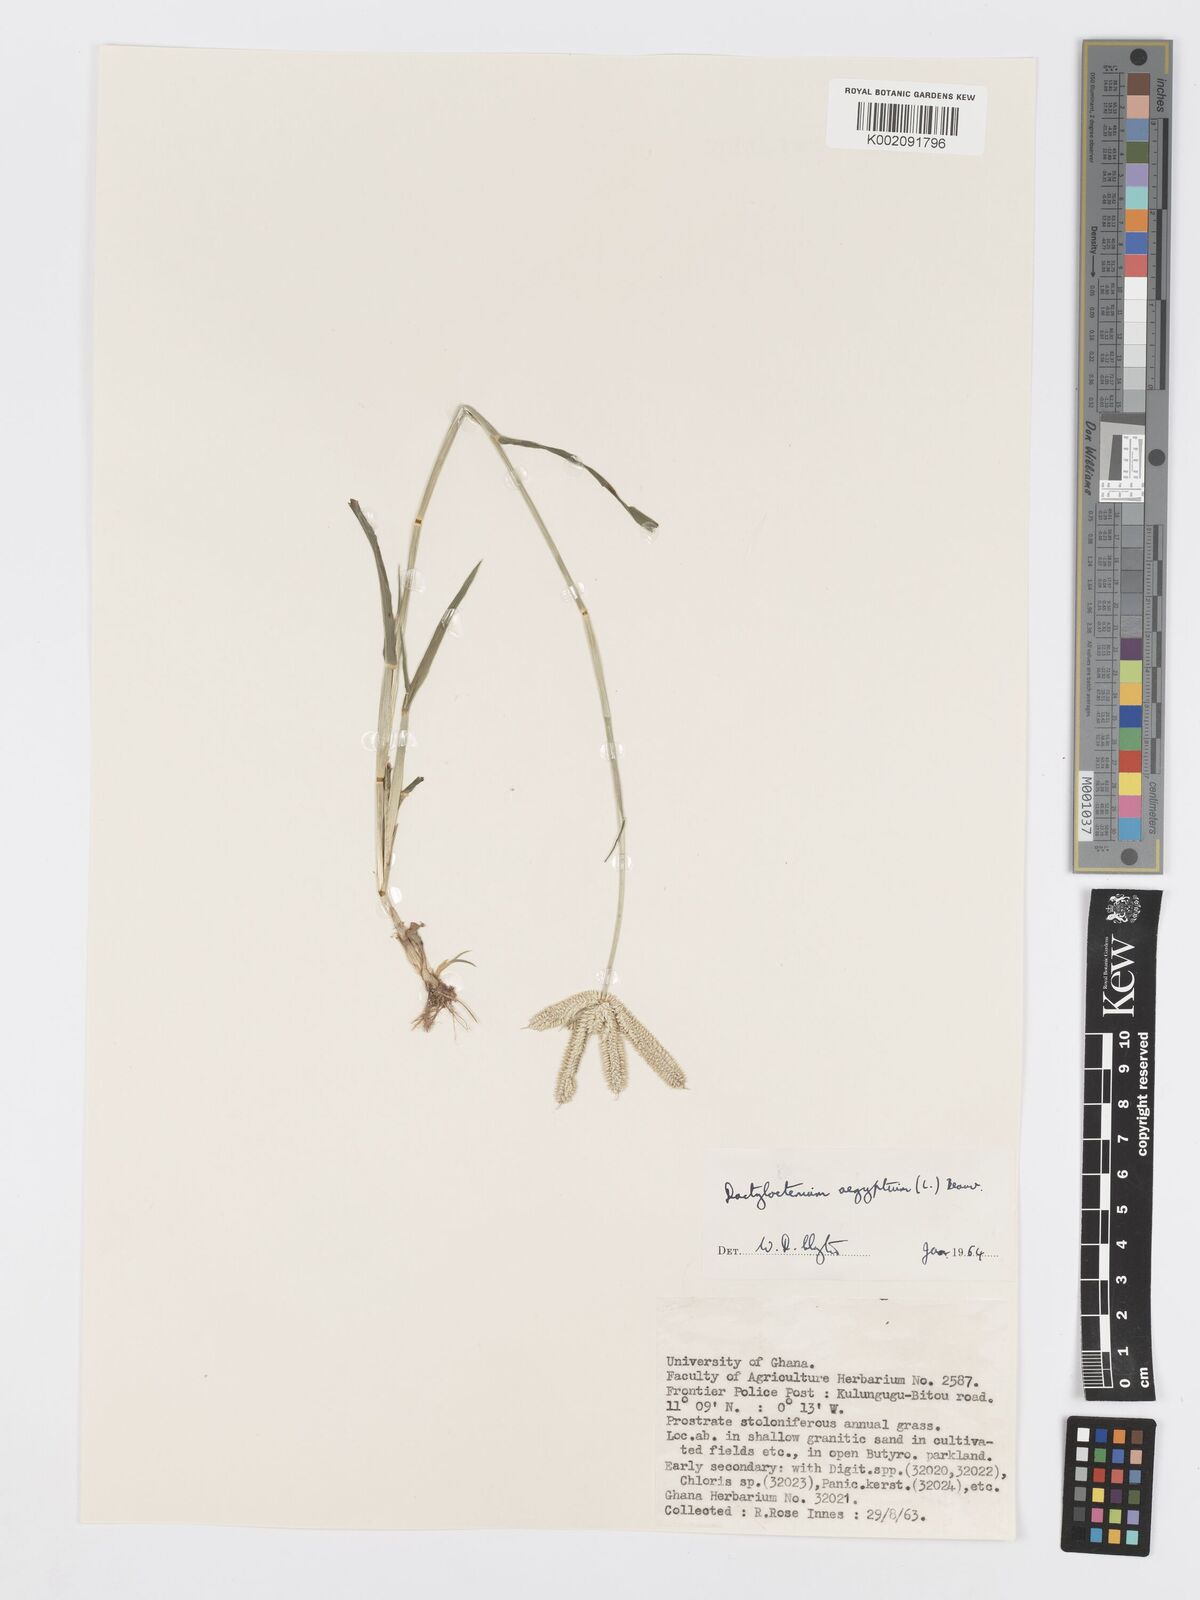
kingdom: Plantae
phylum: Tracheophyta
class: Liliopsida
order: Poales
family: Poaceae
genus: Dactyloctenium
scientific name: Dactyloctenium aegyptium
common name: Egyptian grass
